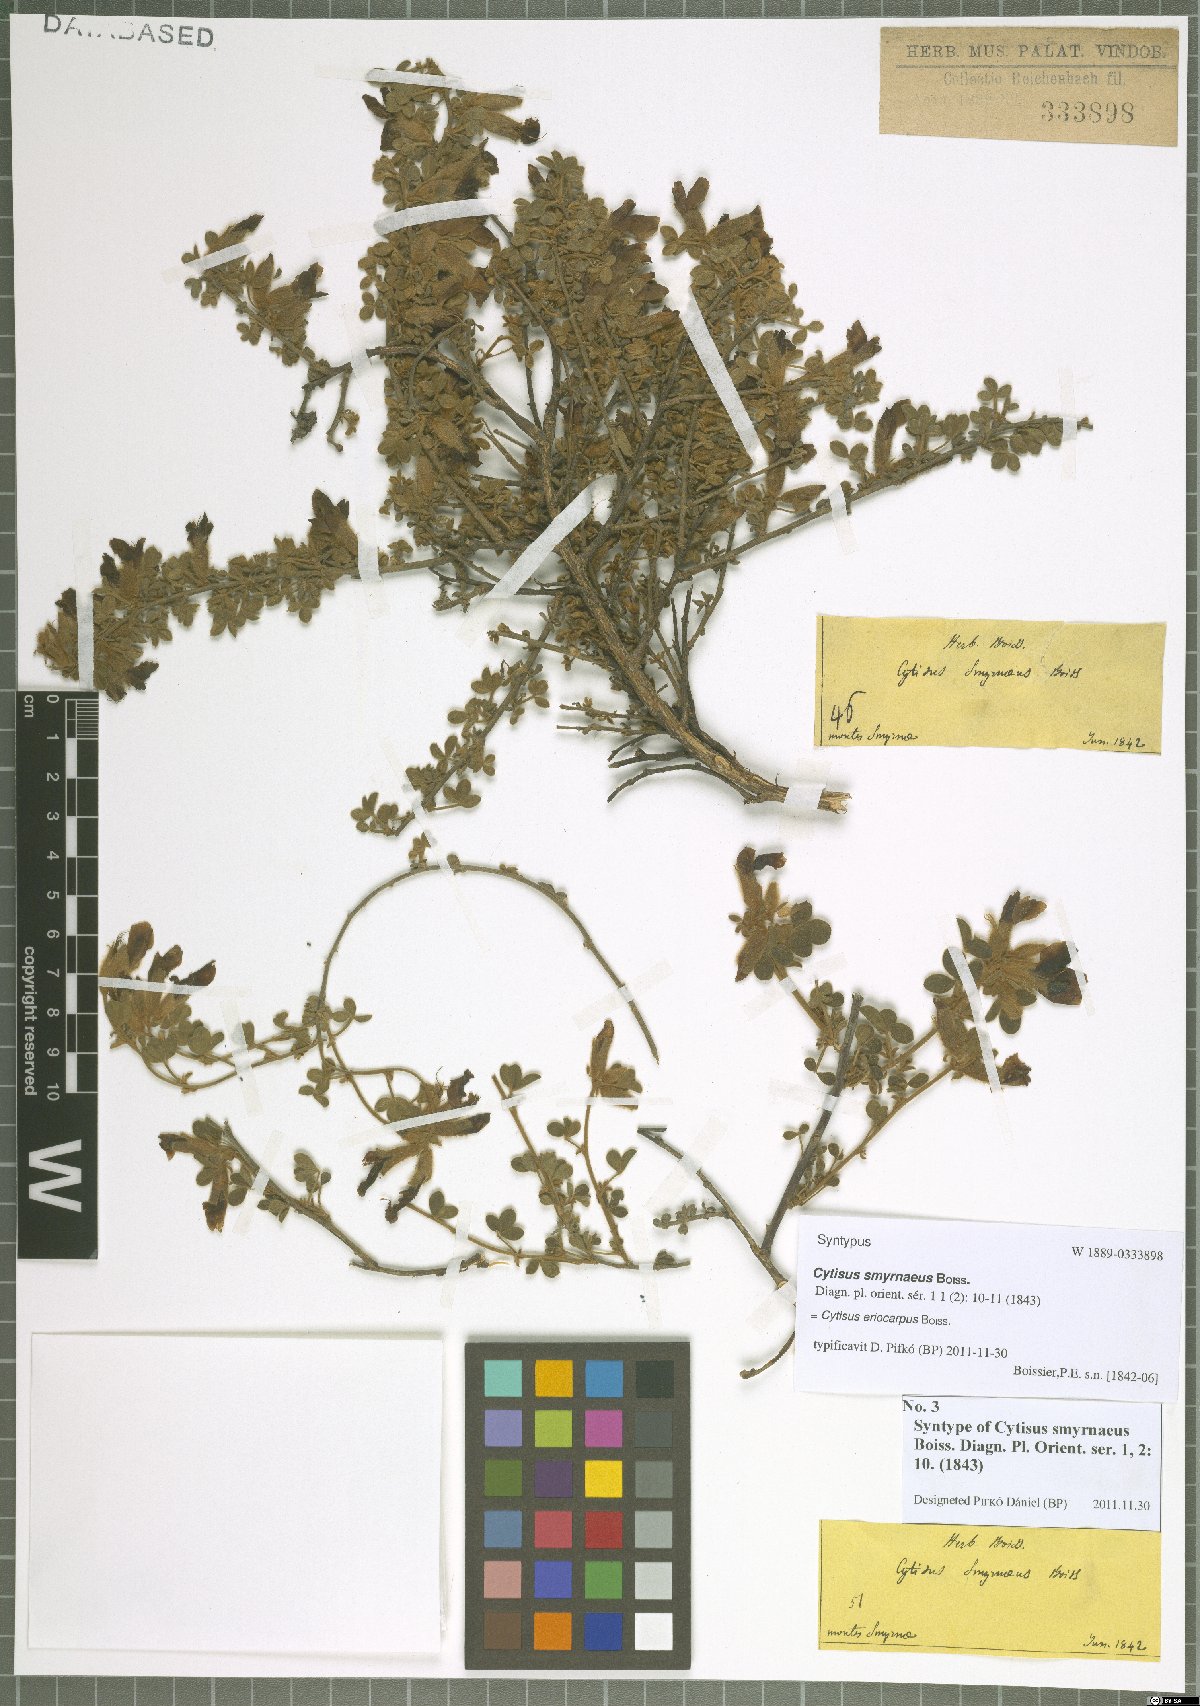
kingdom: Plantae
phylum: Tracheophyta
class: Magnoliopsida
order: Fabales
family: Fabaceae
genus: Chamaecytisus
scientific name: Chamaecytisus eriocarpus
